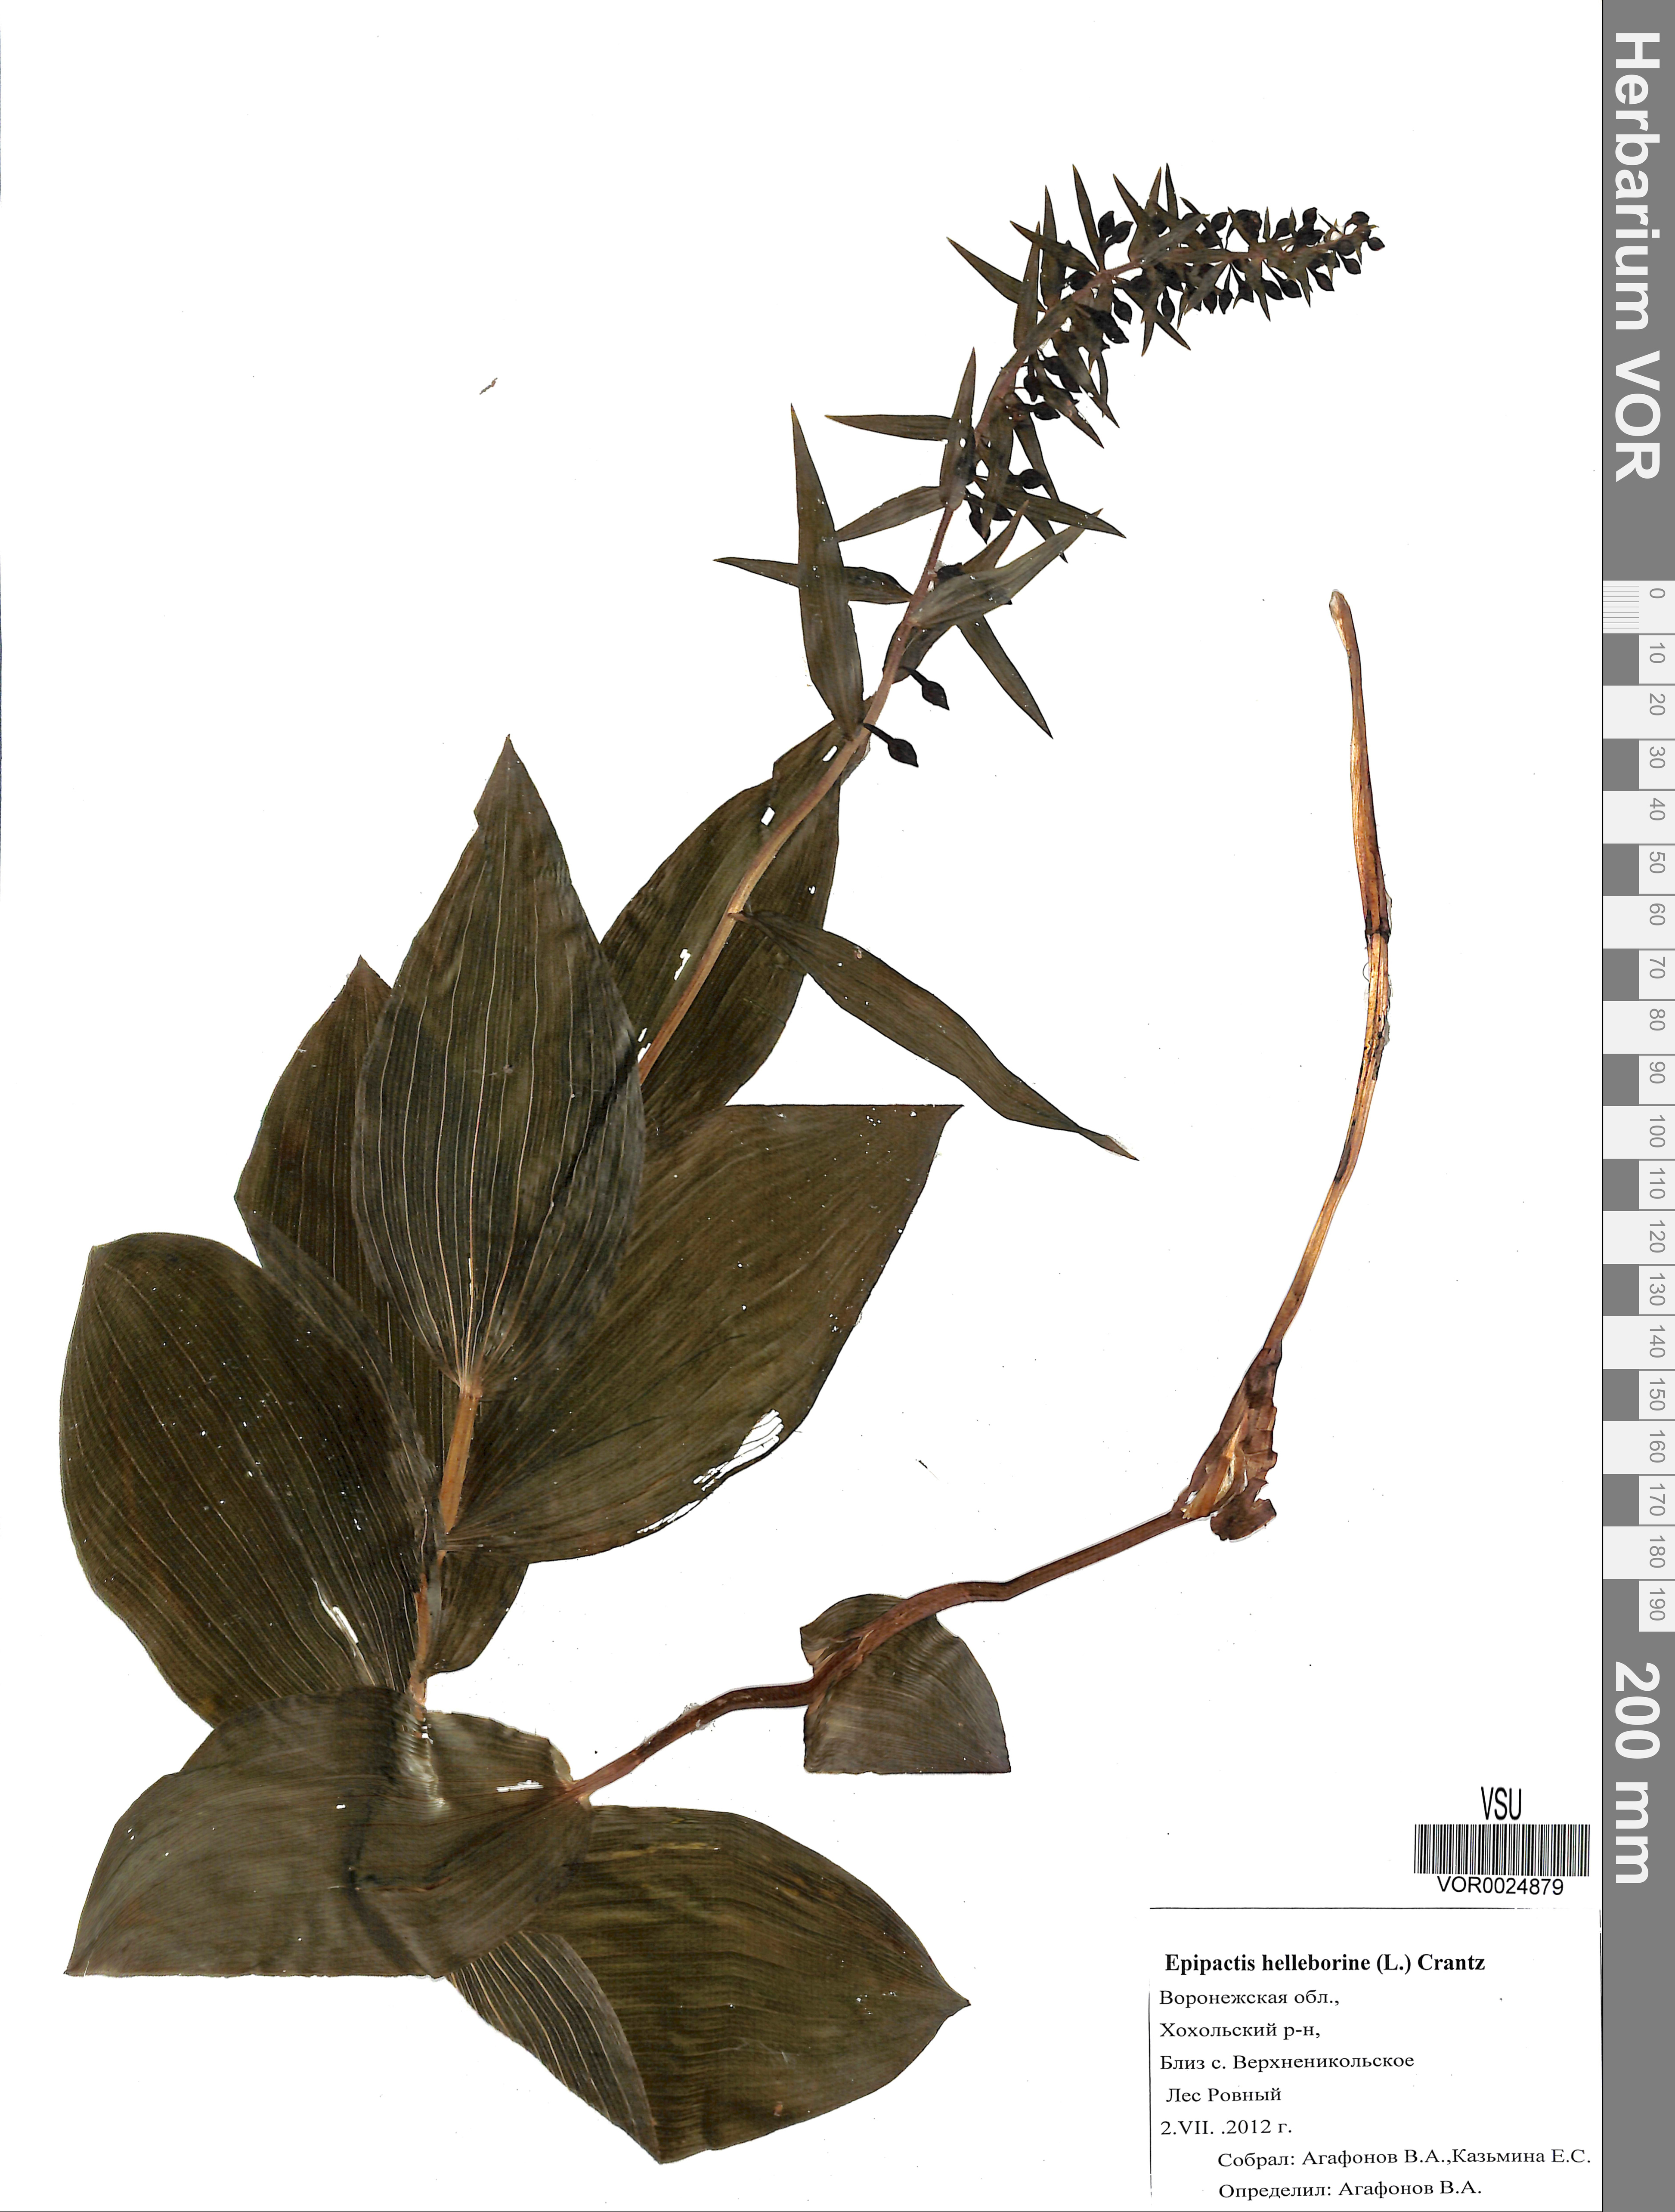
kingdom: Plantae
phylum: Tracheophyta
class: Liliopsida
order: Asparagales
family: Orchidaceae
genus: Epipactis
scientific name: Epipactis helleborine
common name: Broad-leaved helleborine
